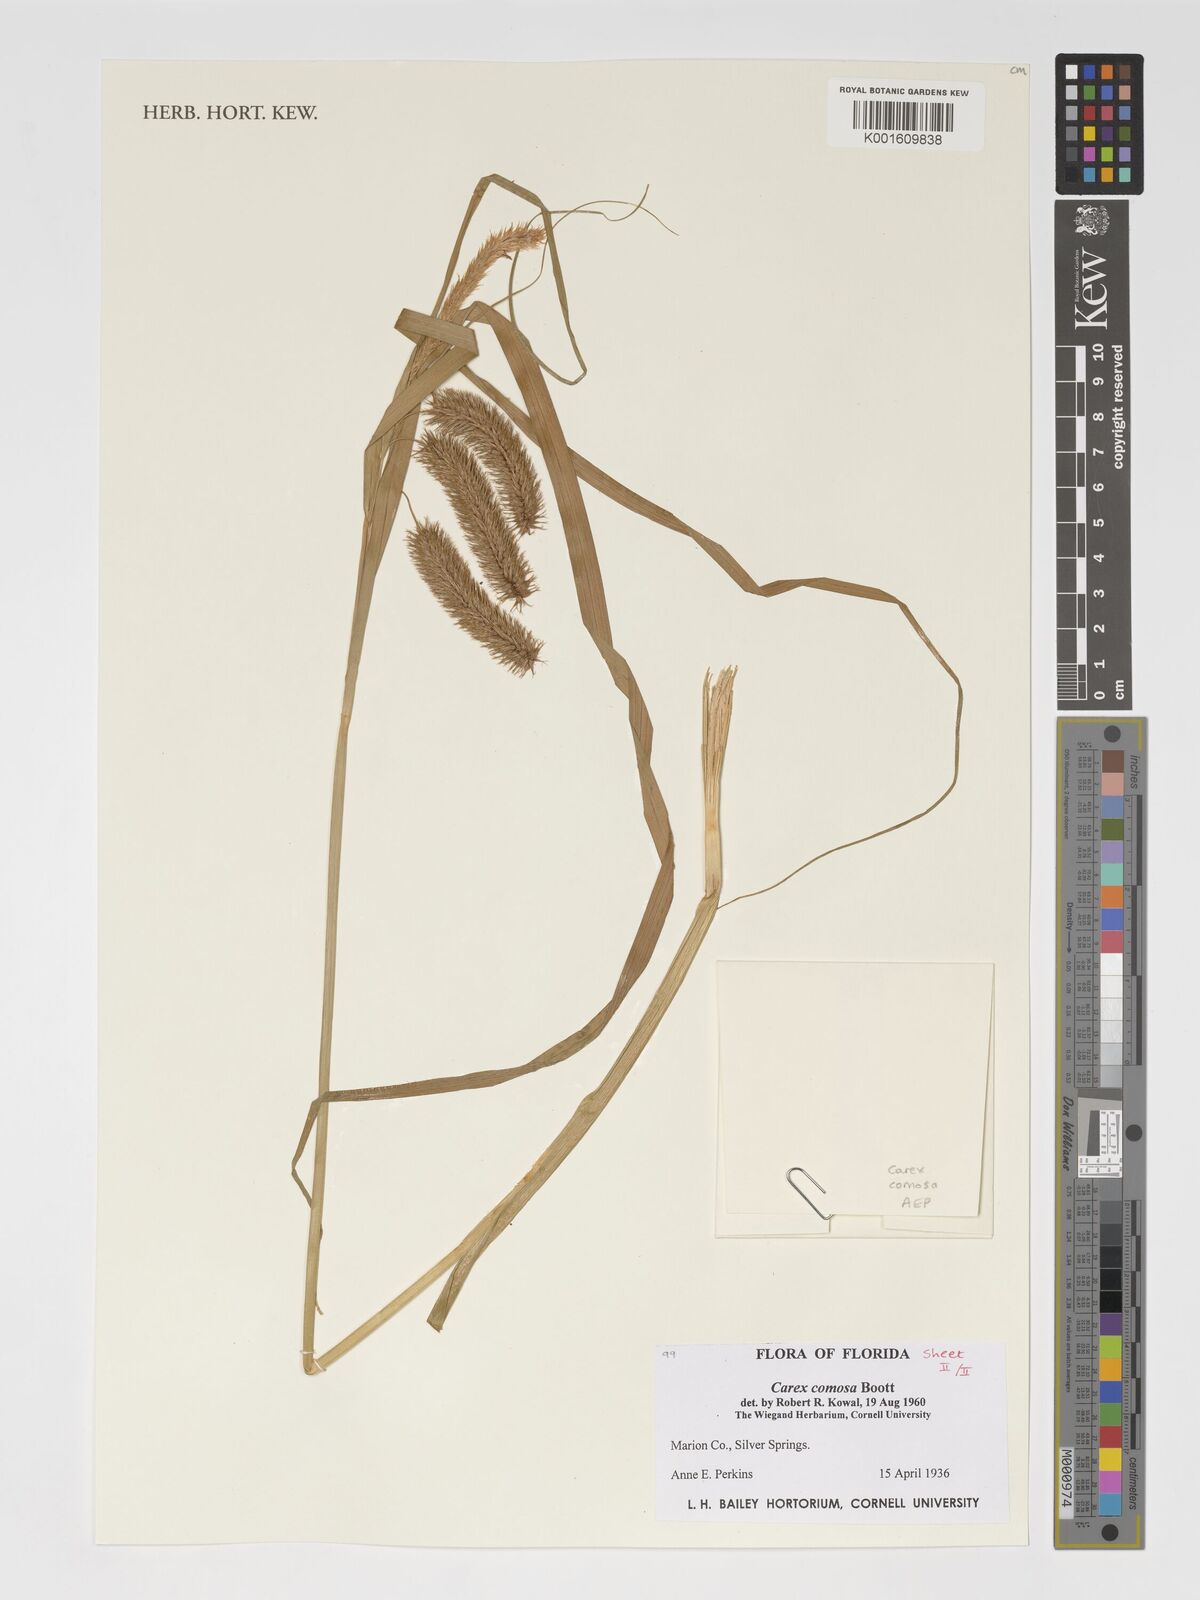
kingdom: Plantae
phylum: Tracheophyta
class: Liliopsida
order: Poales
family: Cyperaceae
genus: Carex
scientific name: Carex comosa
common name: Bristly sedge
